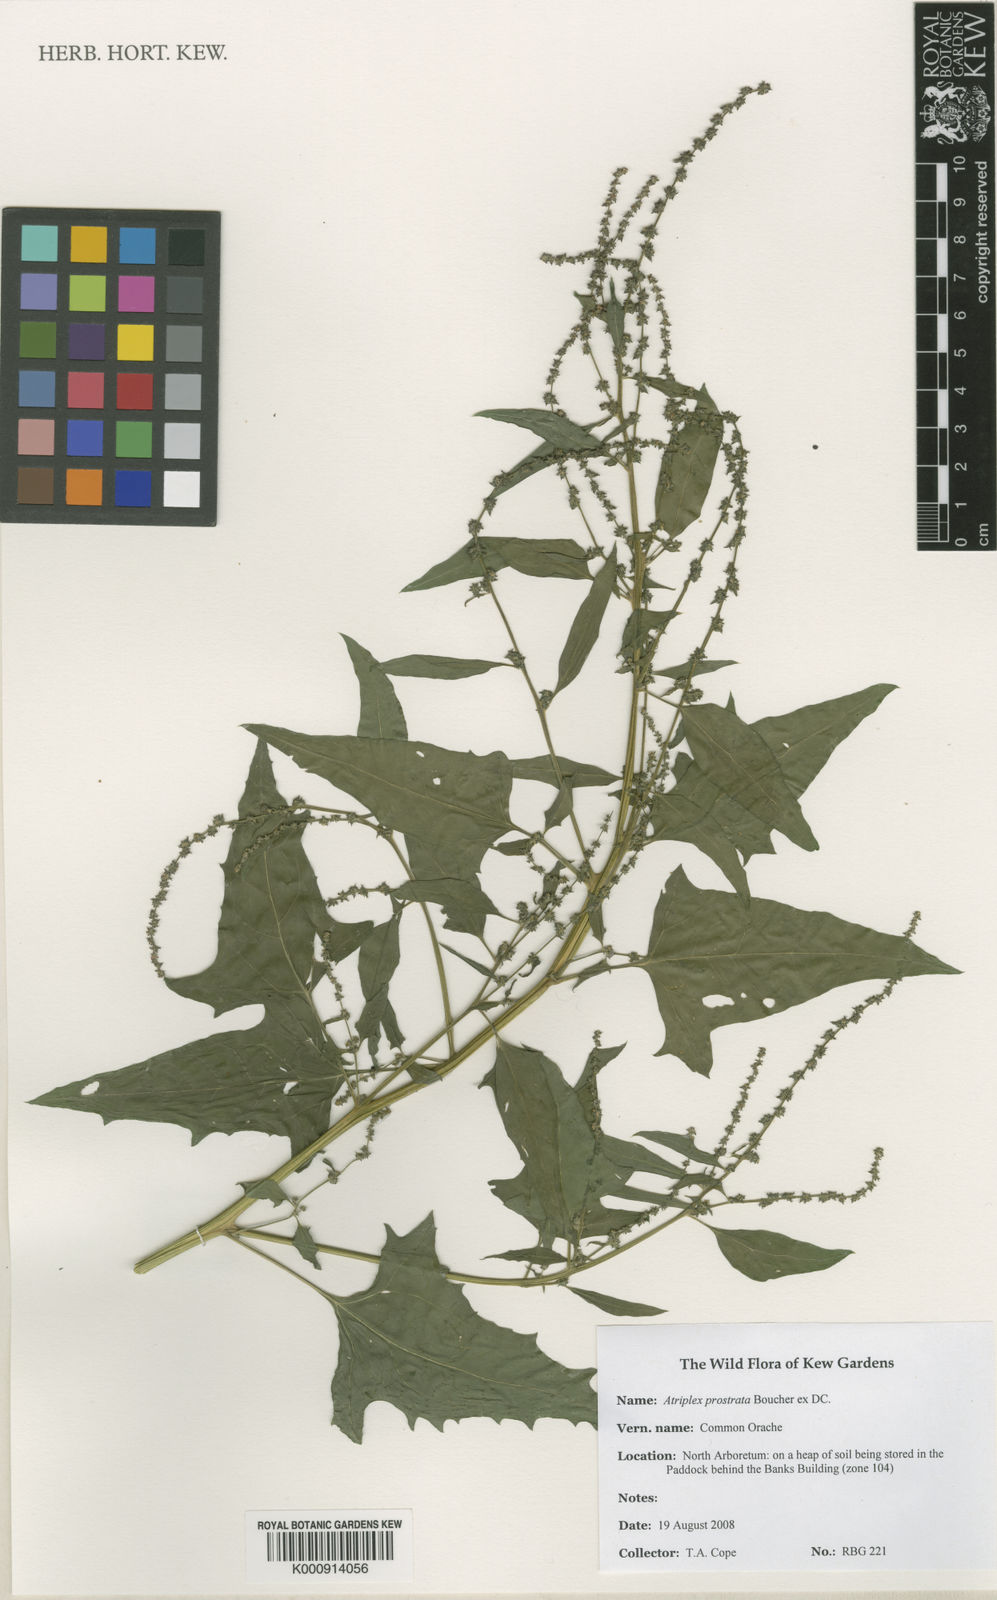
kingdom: Plantae
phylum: Tracheophyta
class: Magnoliopsida
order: Caryophyllales
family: Amaranthaceae
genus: Atriplex
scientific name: Atriplex prostrata
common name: Spear-leaved orache
